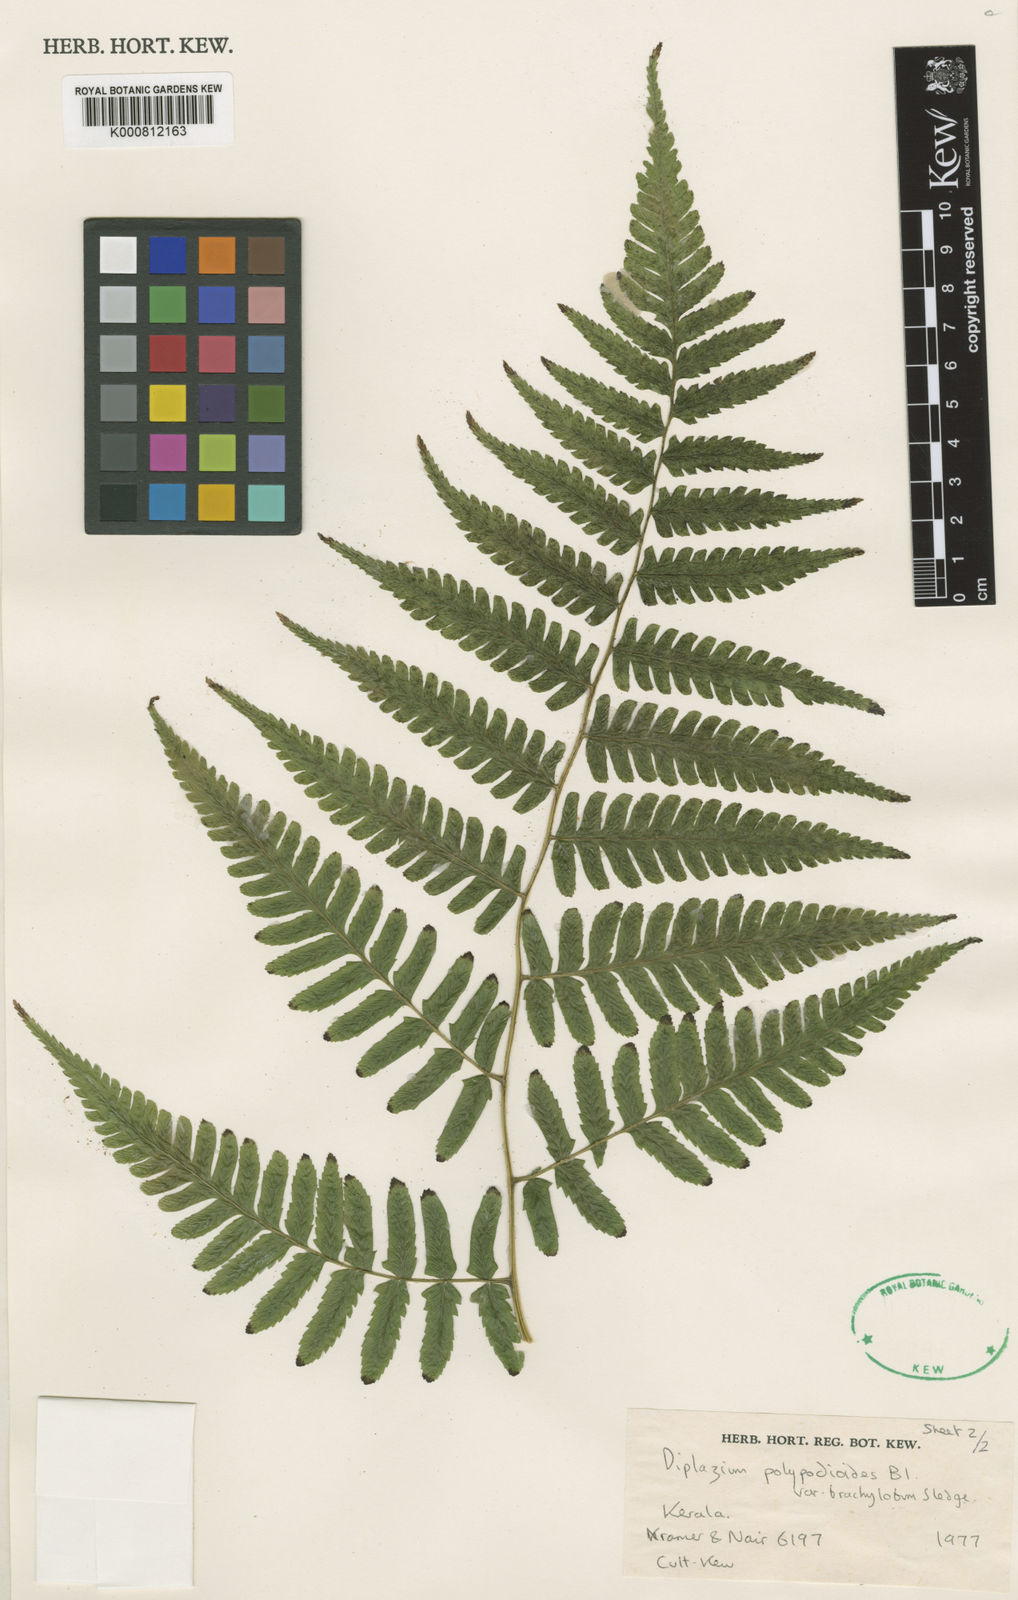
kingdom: Plantae
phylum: Tracheophyta
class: Polypodiopsida
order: Polypodiales
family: Athyriaceae
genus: Diplazium
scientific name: Diplazium polypodioides
